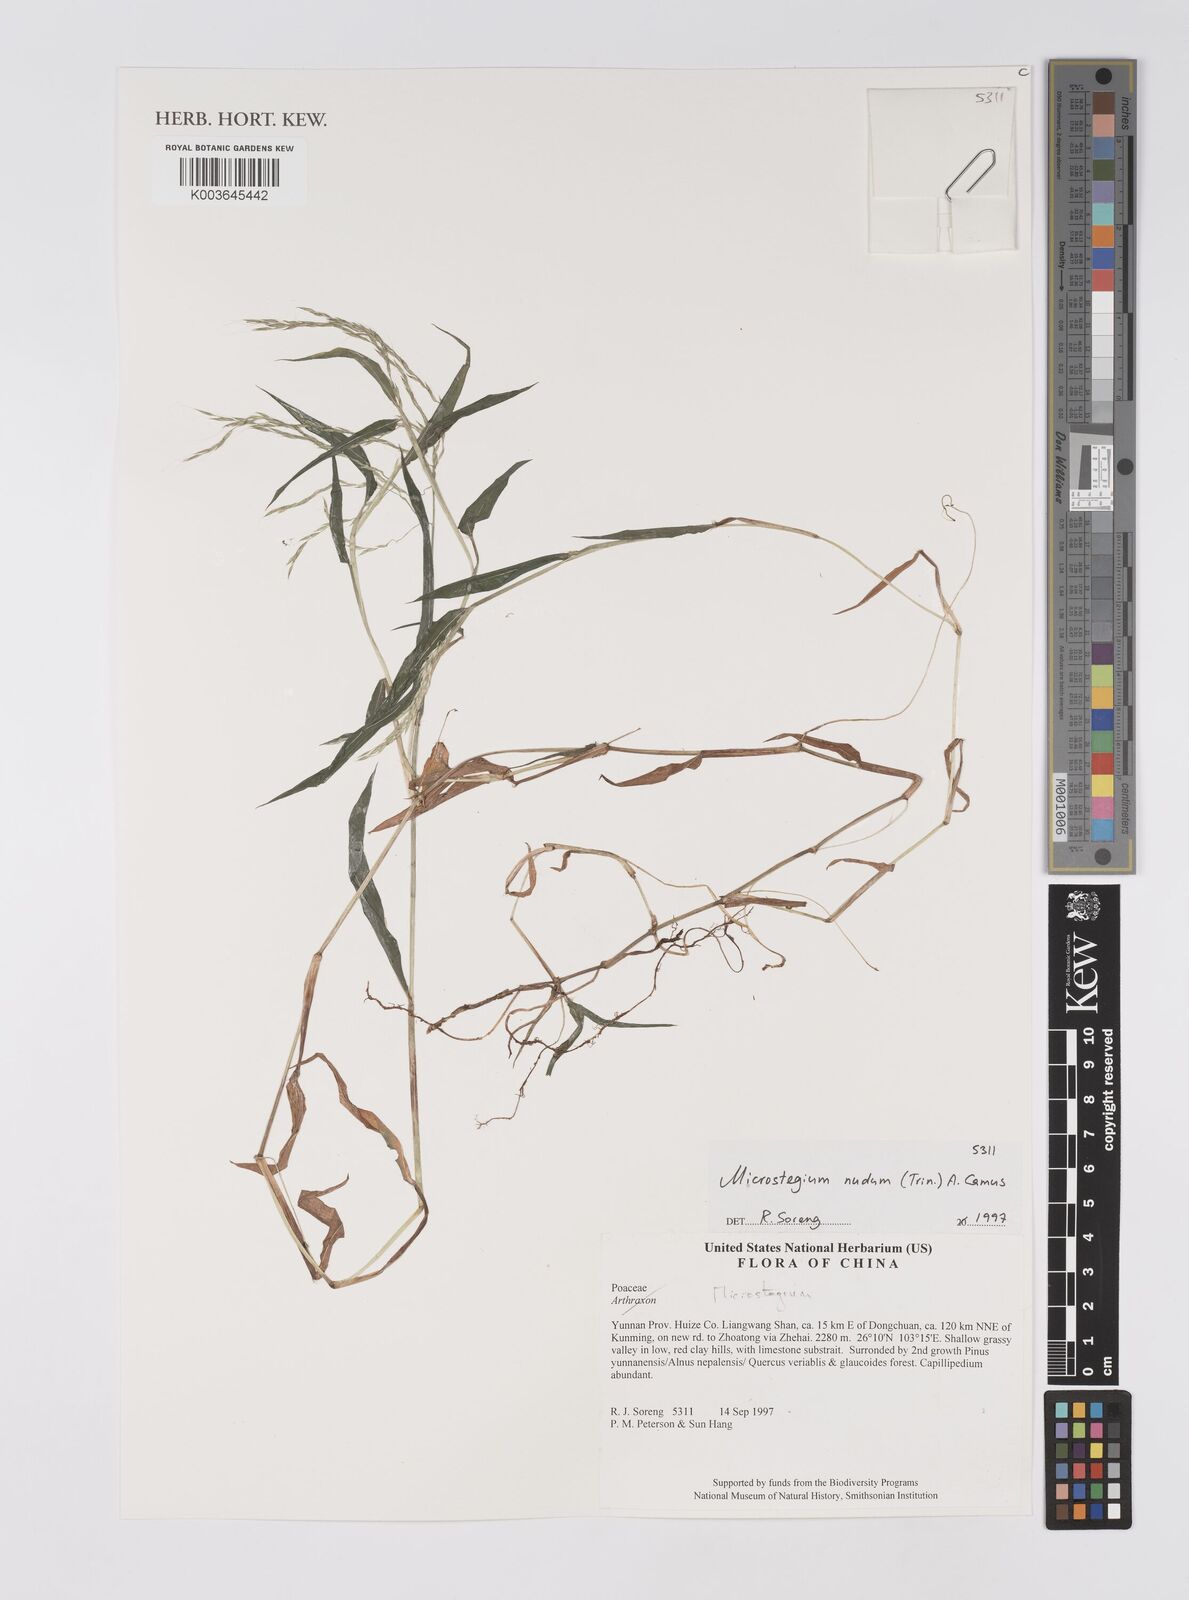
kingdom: Plantae
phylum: Tracheophyta
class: Liliopsida
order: Poales
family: Poaceae
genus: Microstegium
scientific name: Microstegium nudum
